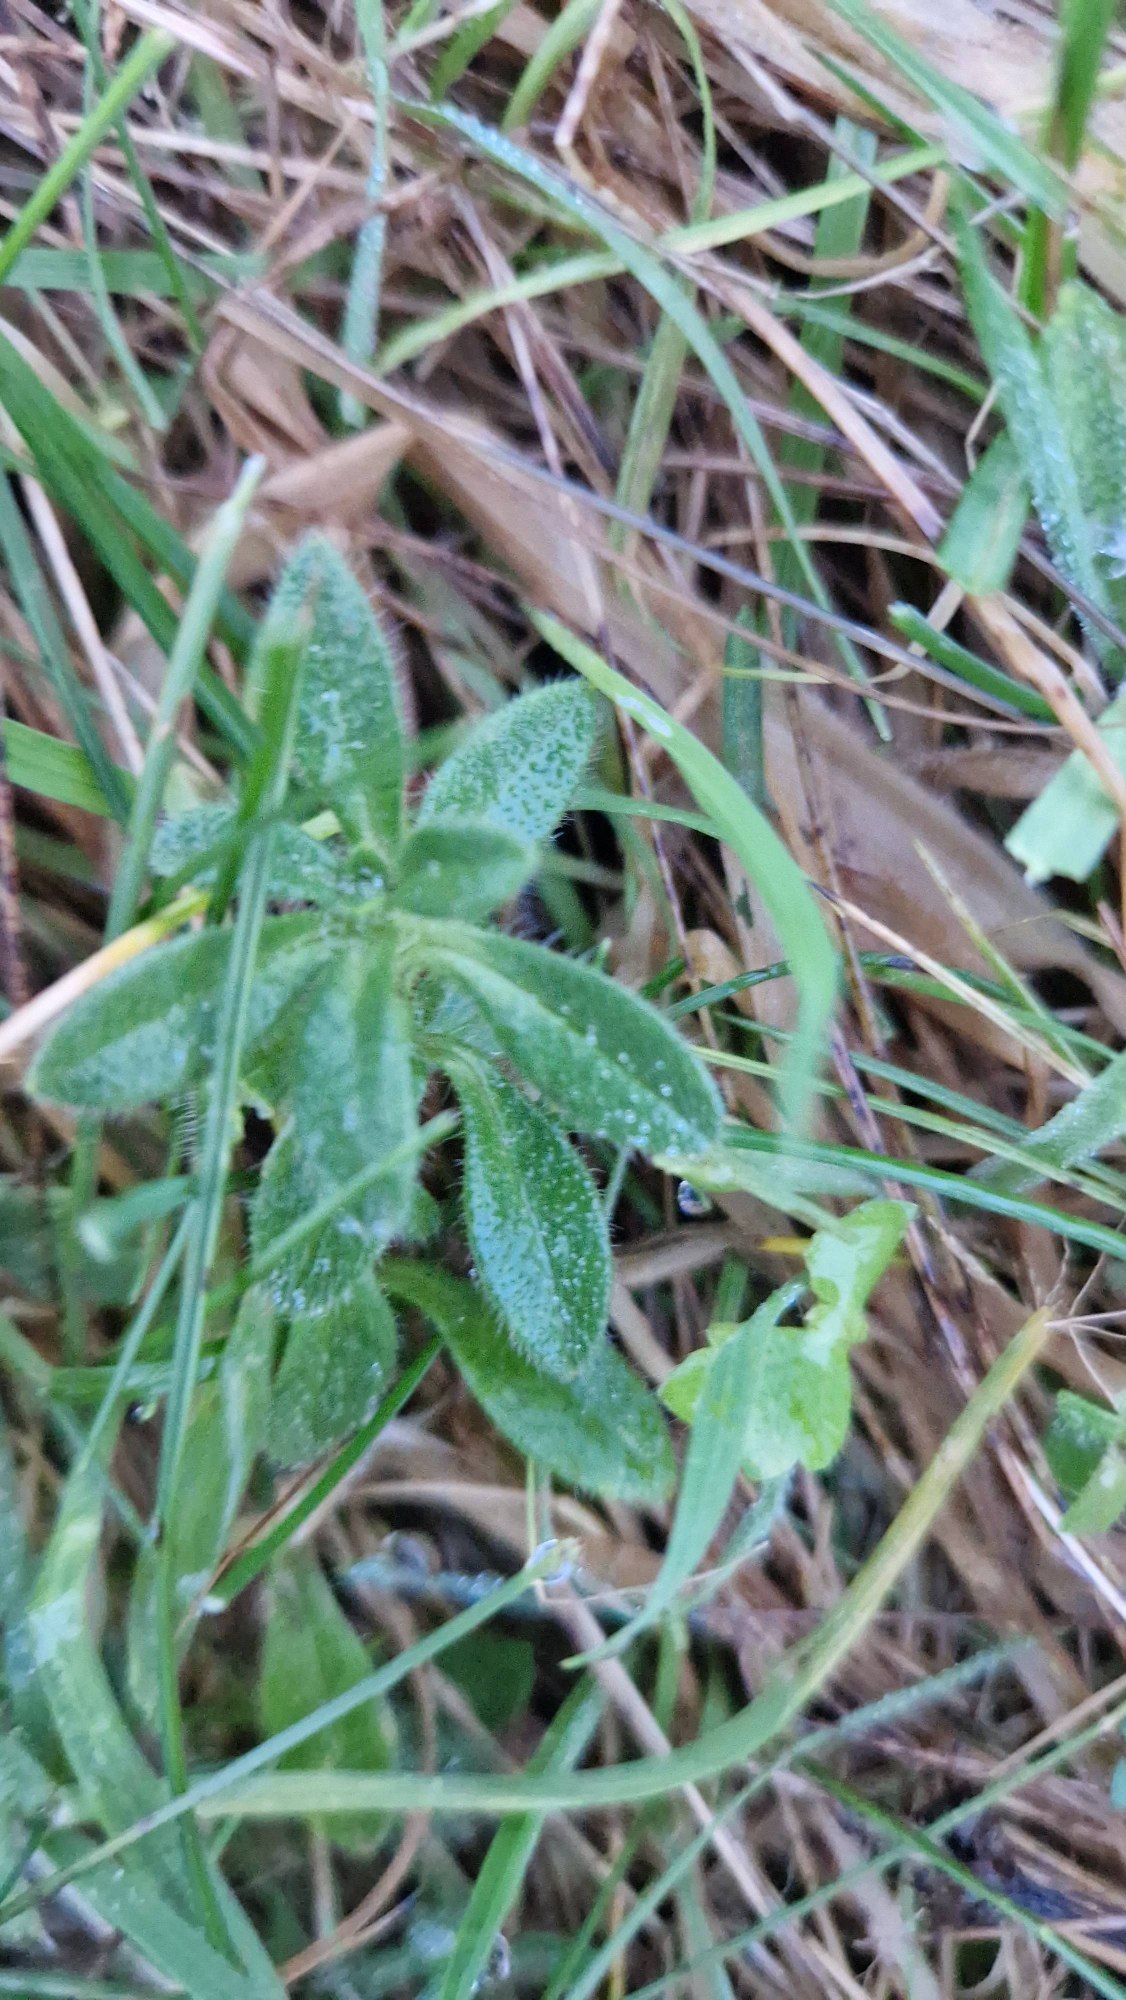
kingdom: Plantae
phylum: Tracheophyta
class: Magnoliopsida
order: Caryophyllales
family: Caryophyllaceae
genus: Cerastium
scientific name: Cerastium fontanum
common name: Almindelig hønsetarm
